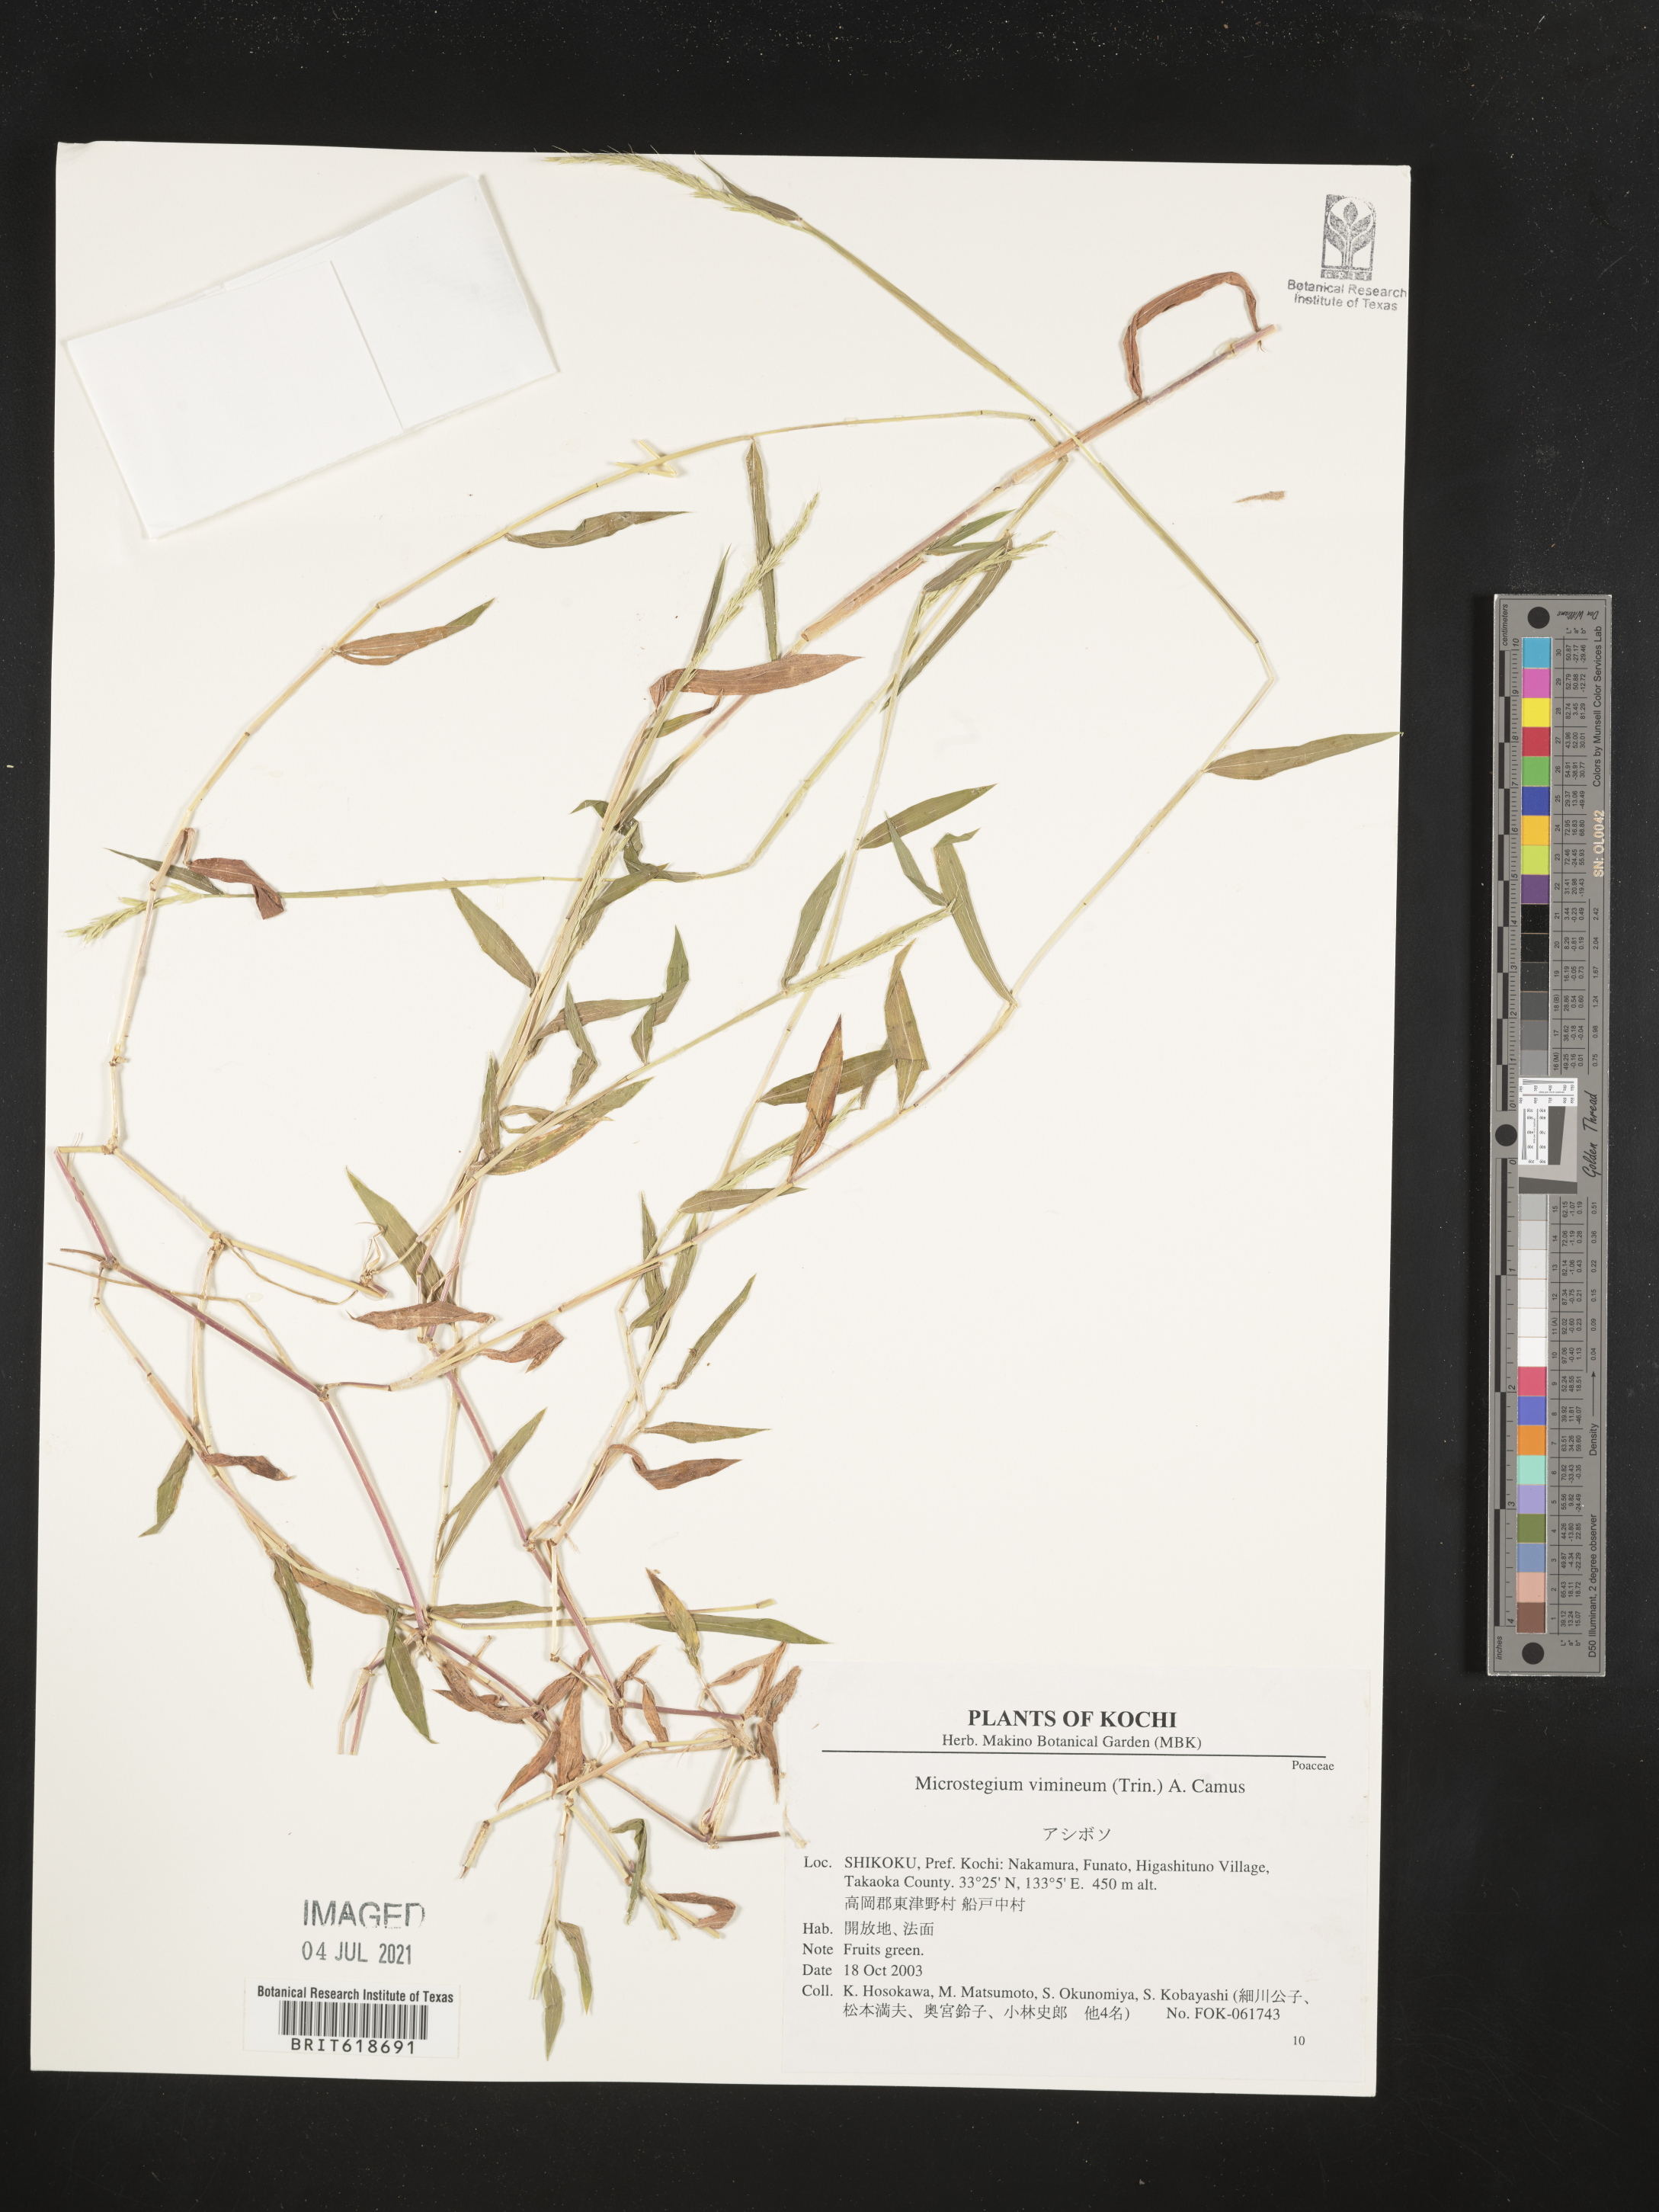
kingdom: Plantae
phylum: Tracheophyta
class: Liliopsida
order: Poales
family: Poaceae
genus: Microstegium
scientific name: Microstegium vimineum
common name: Japanese stiltgrass
